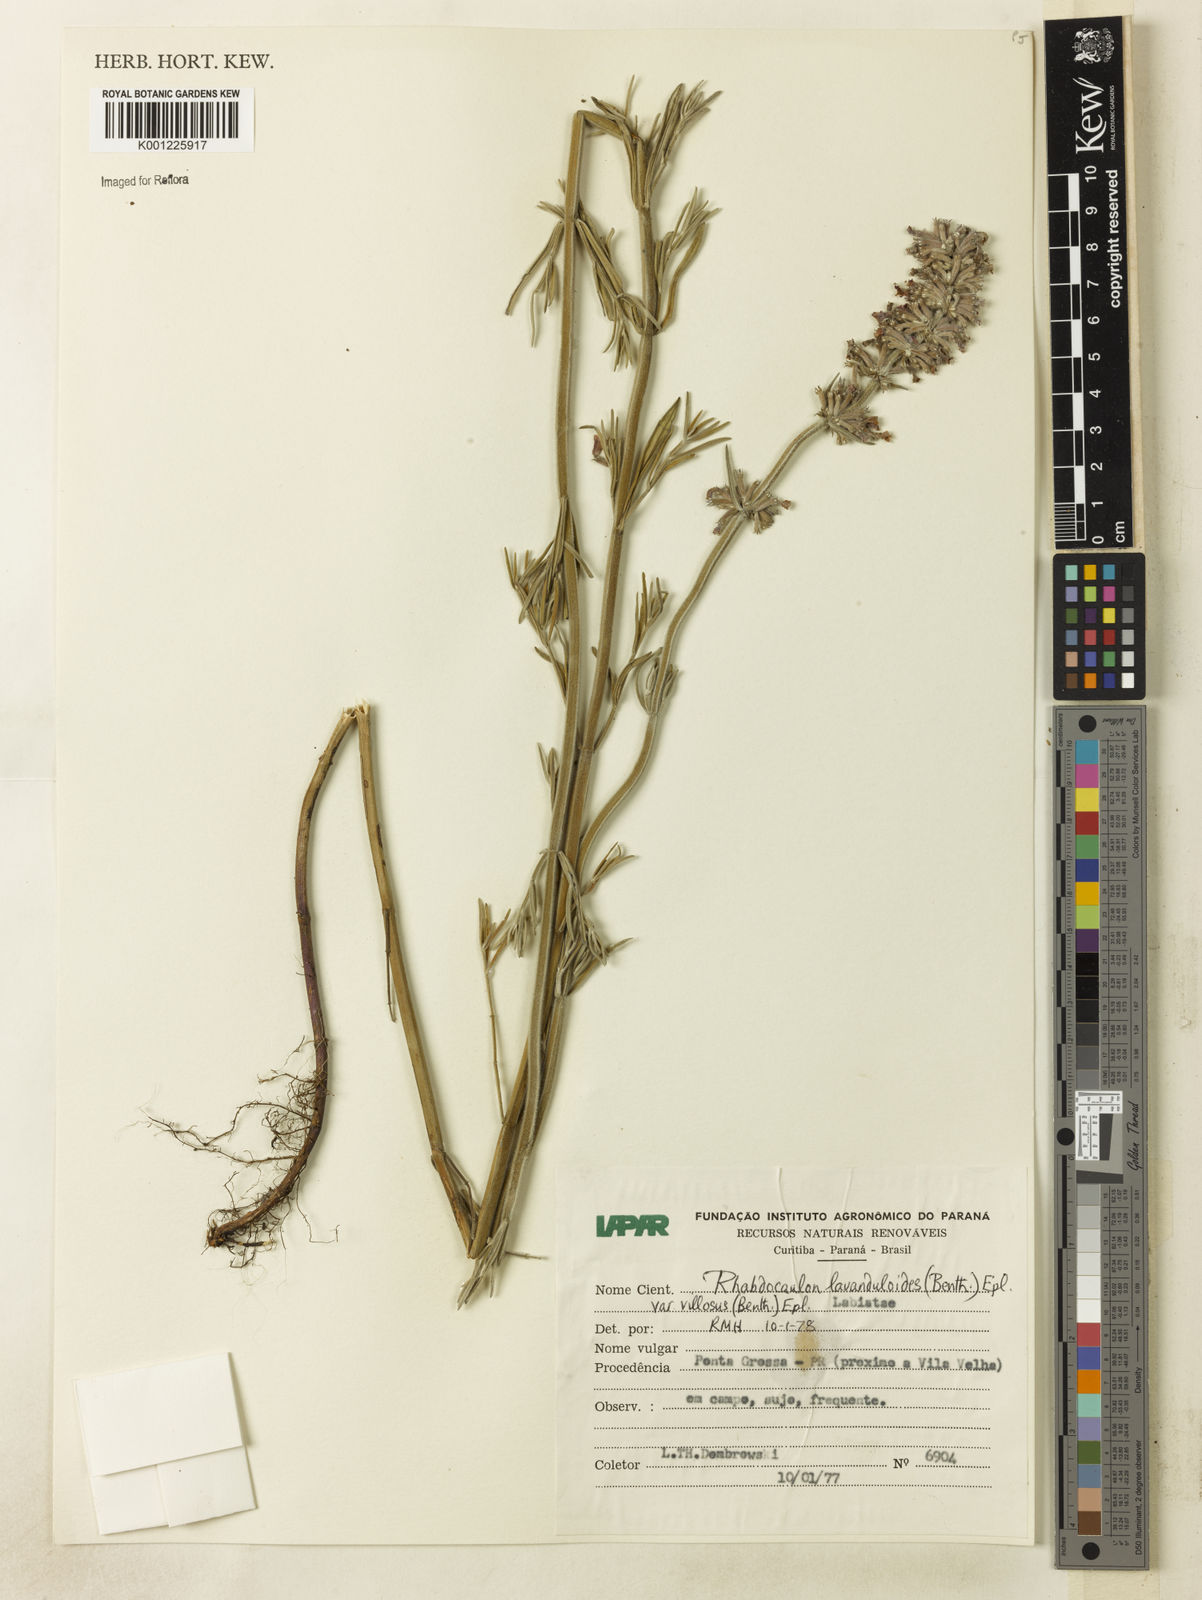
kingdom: Plantae
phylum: Tracheophyta
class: Magnoliopsida
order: Lamiales
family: Lamiaceae
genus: Rhabdocaulon
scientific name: Rhabdocaulon lavanduloides
